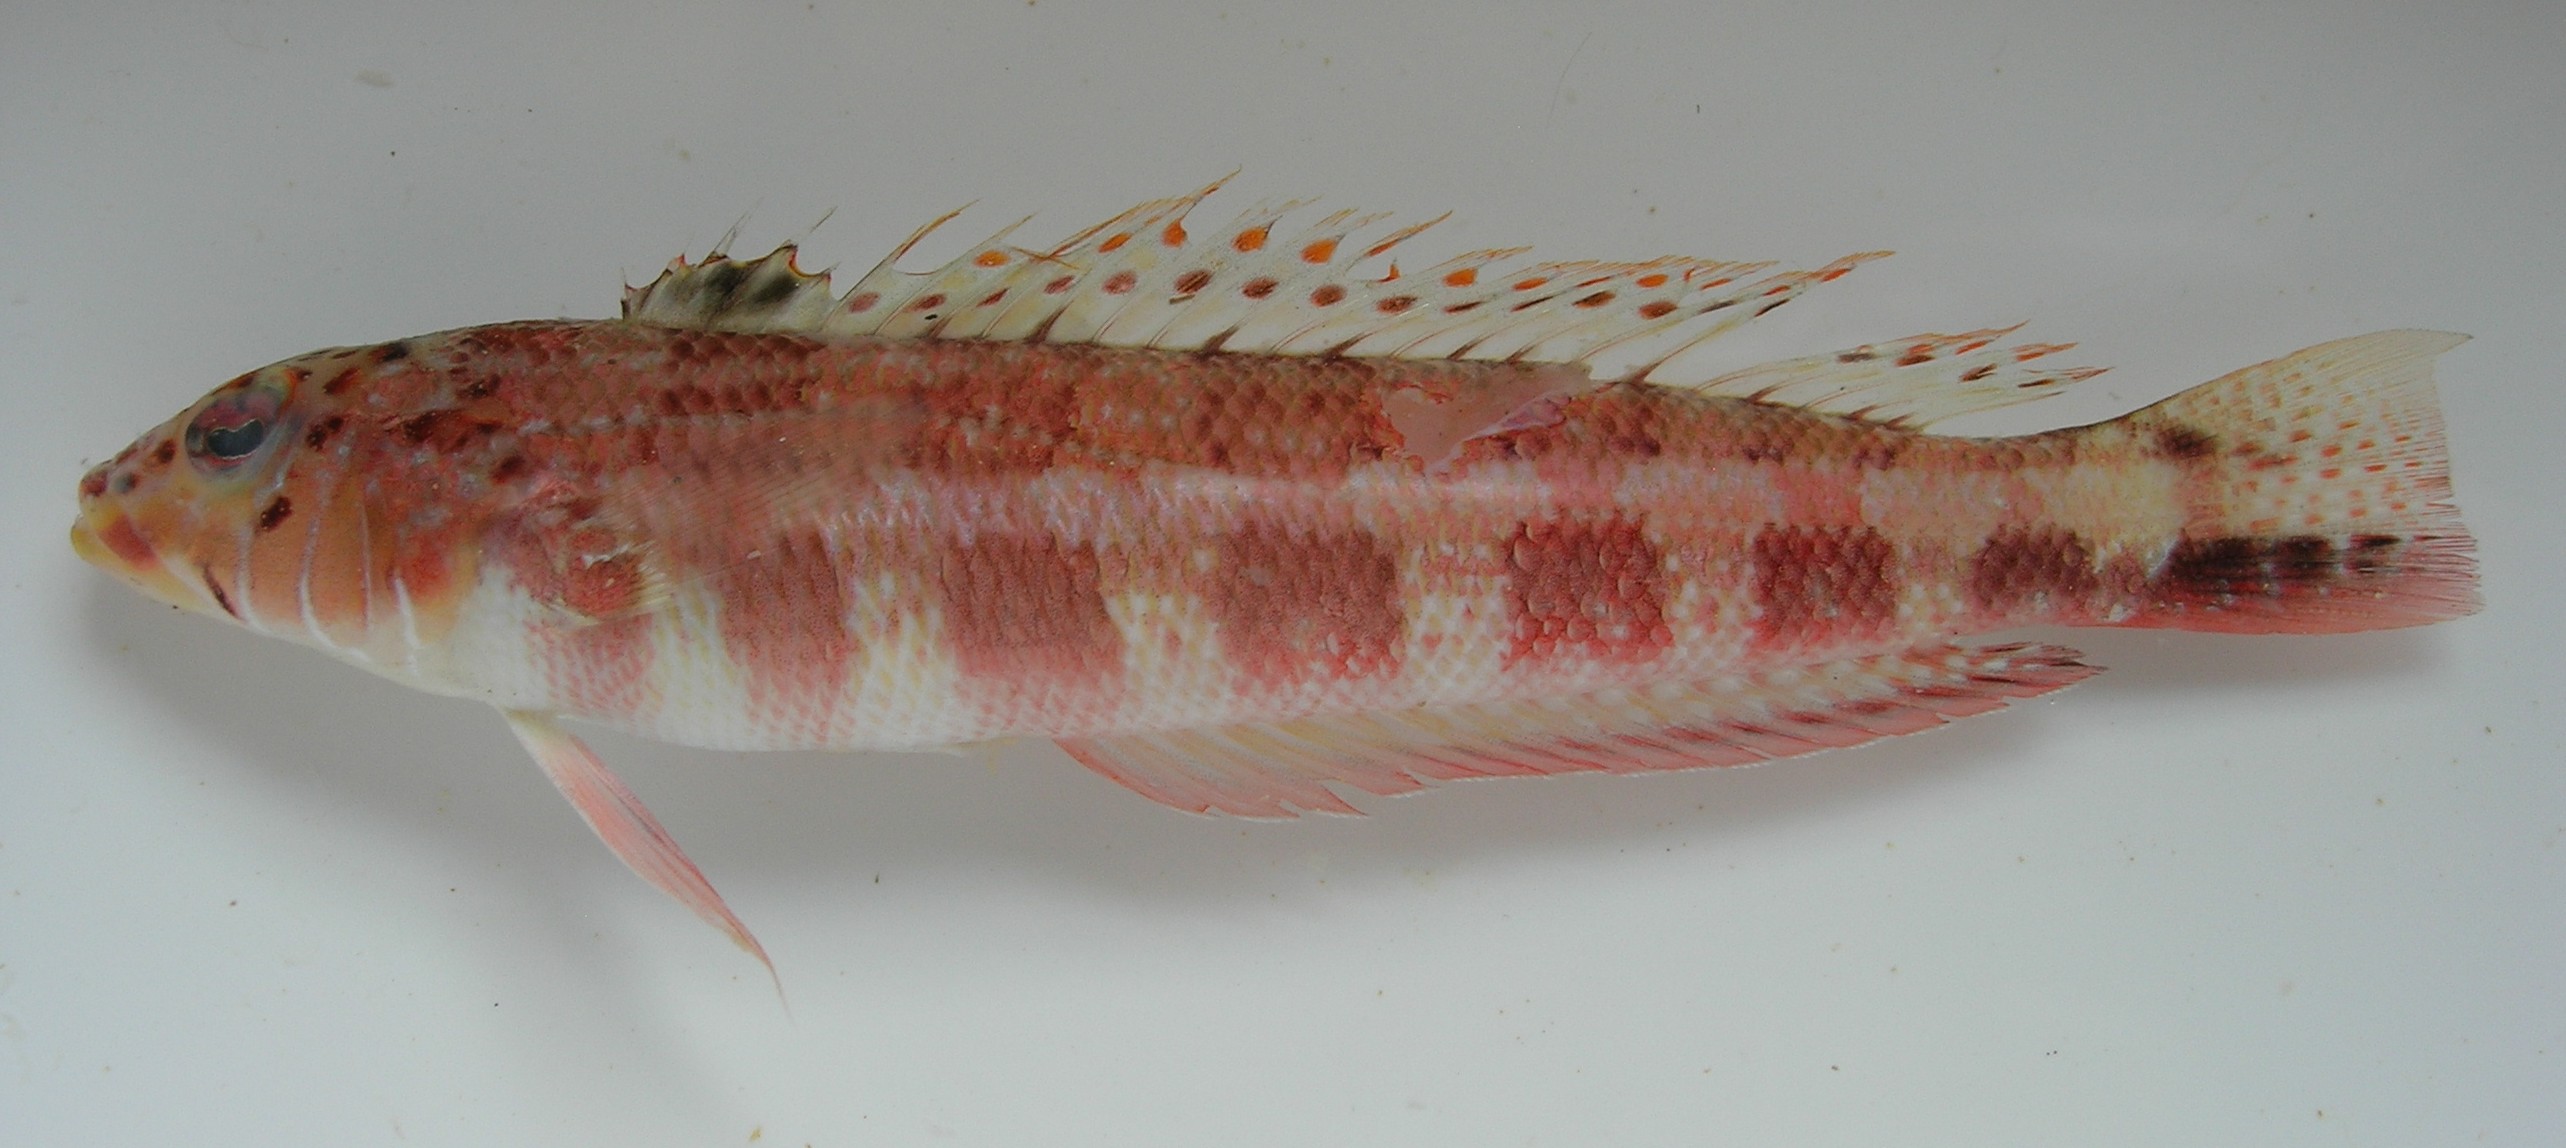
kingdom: Animalia
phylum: Chordata
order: Perciformes
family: Pinguipedidae
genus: Parapercis
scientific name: Parapercis maculata
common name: Harlequin sandperch
